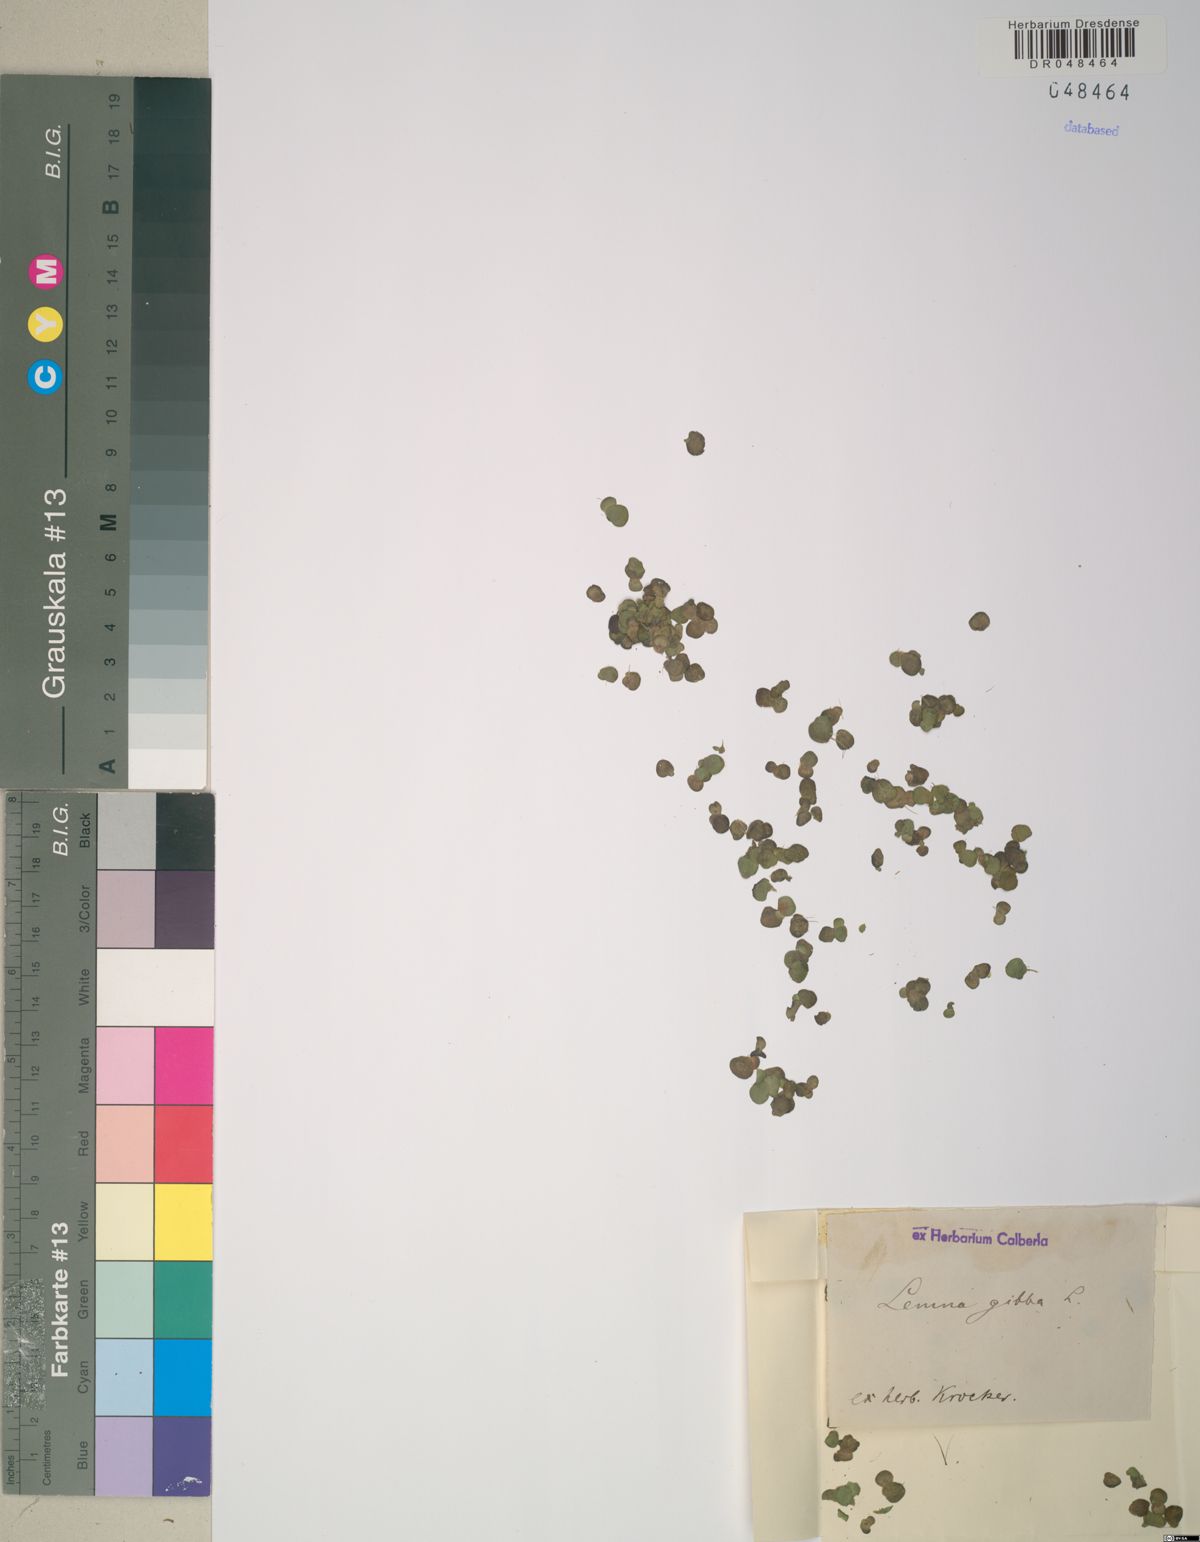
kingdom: Plantae
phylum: Tracheophyta
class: Liliopsida
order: Alismatales
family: Araceae
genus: Lemna
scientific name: Lemna gibba
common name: Fat duckweed
